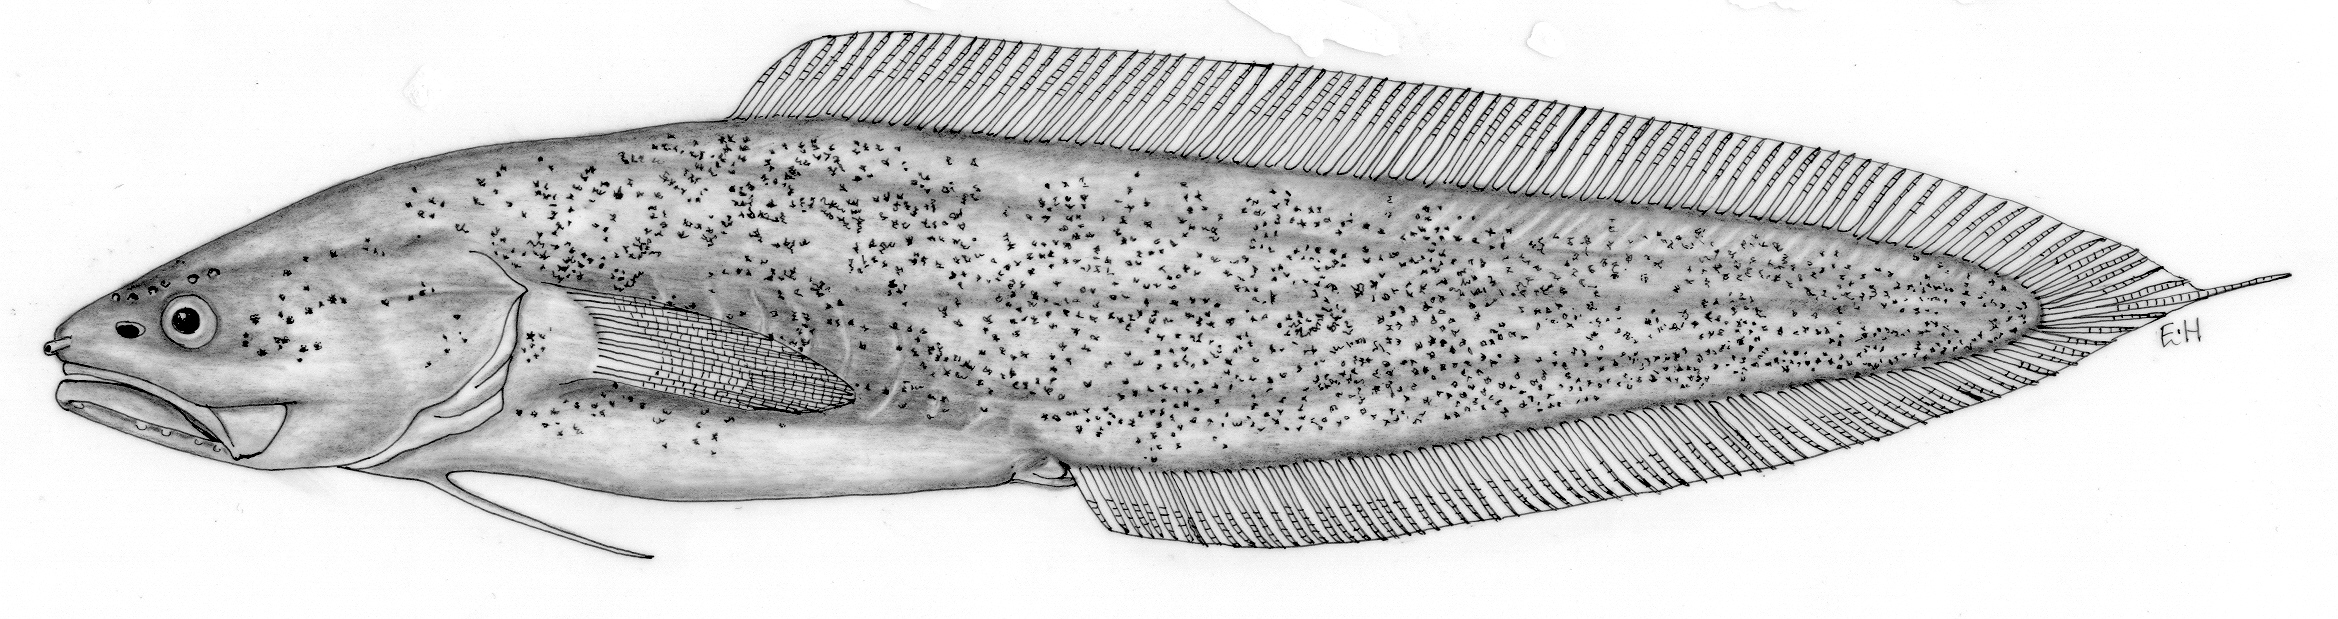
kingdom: Animalia
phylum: Chordata
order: Ophidiiformes
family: Bythitidae
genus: Microbrotula
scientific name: Microbrotula punicea
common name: Orange brotula
